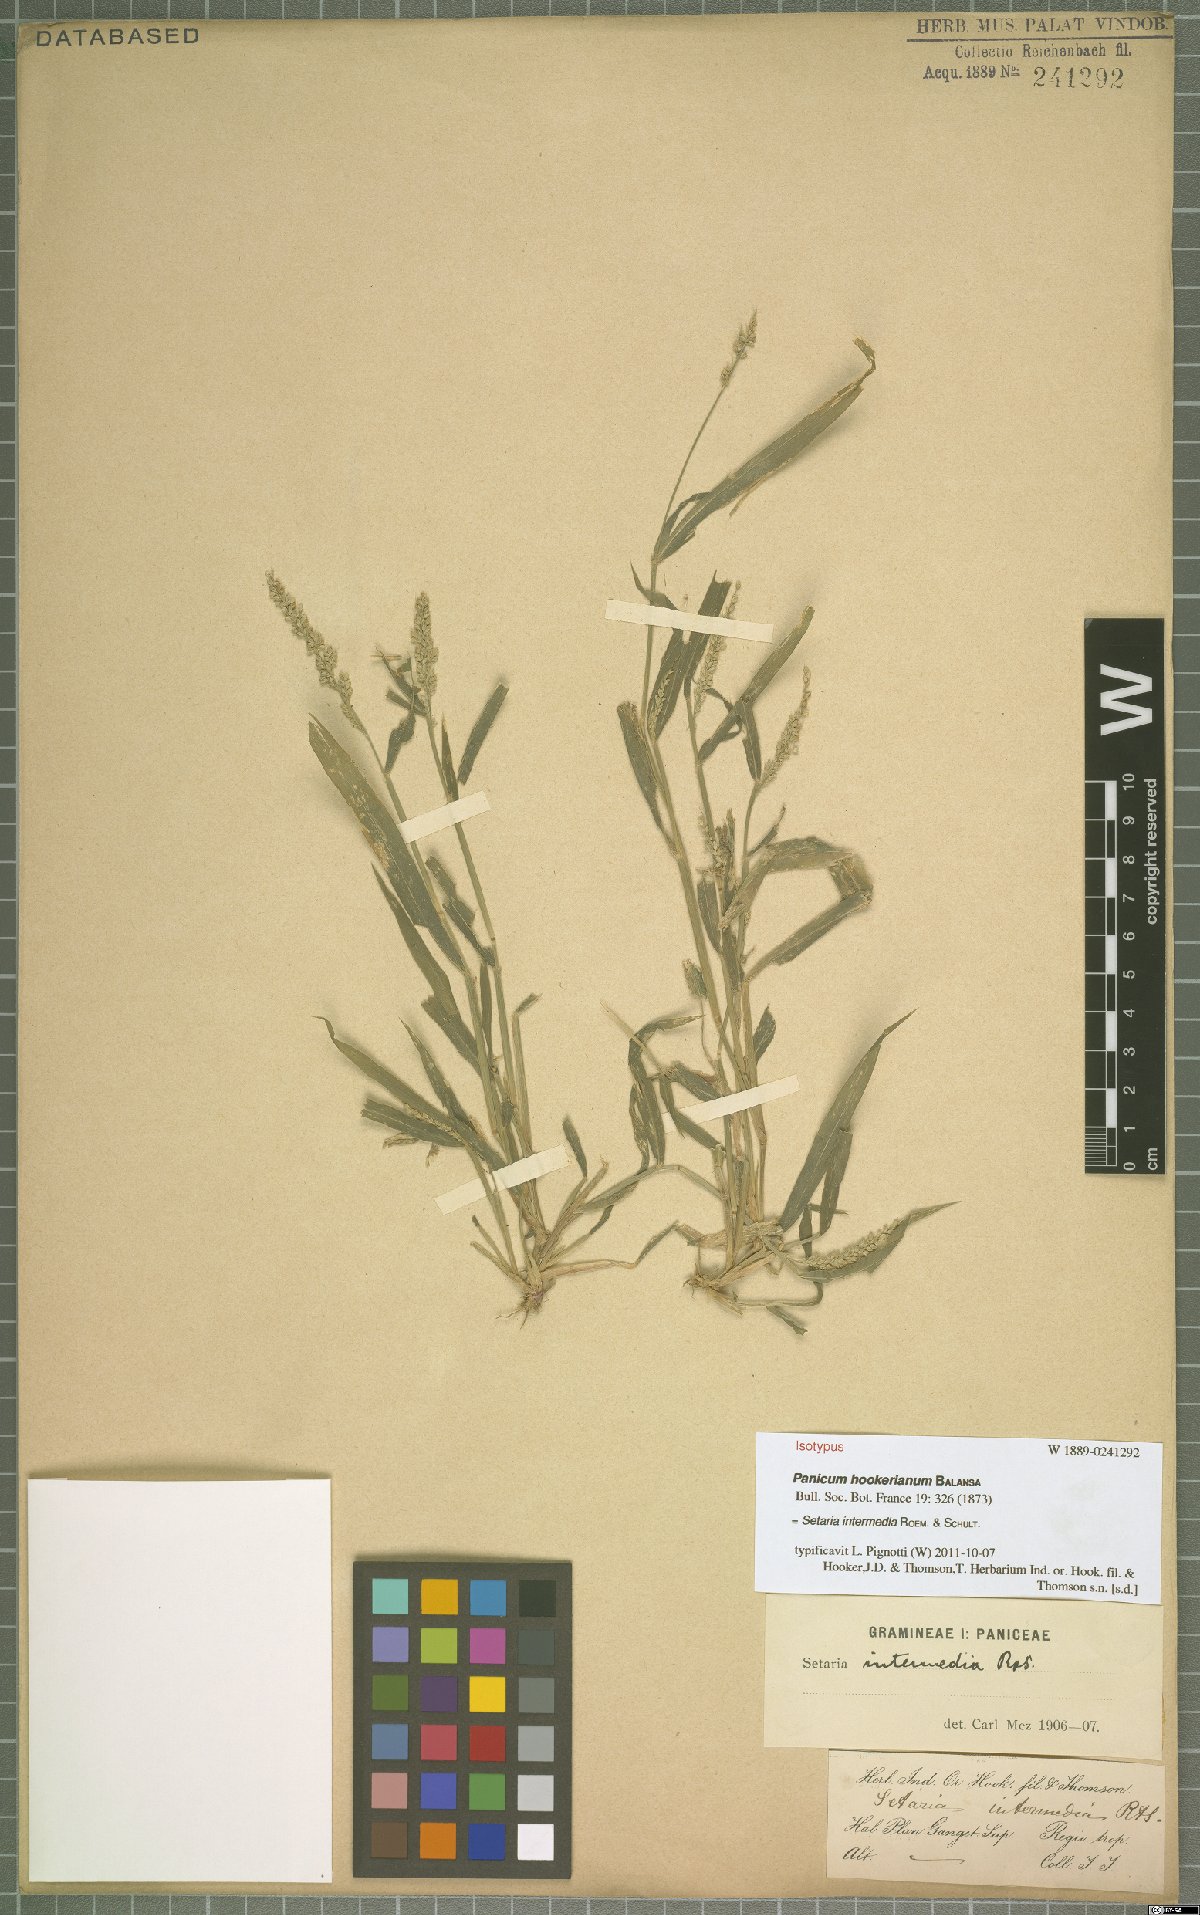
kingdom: Plantae
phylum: Tracheophyta
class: Liliopsida
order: Poales
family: Poaceae
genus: Setaria
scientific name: Setaria intermedia
